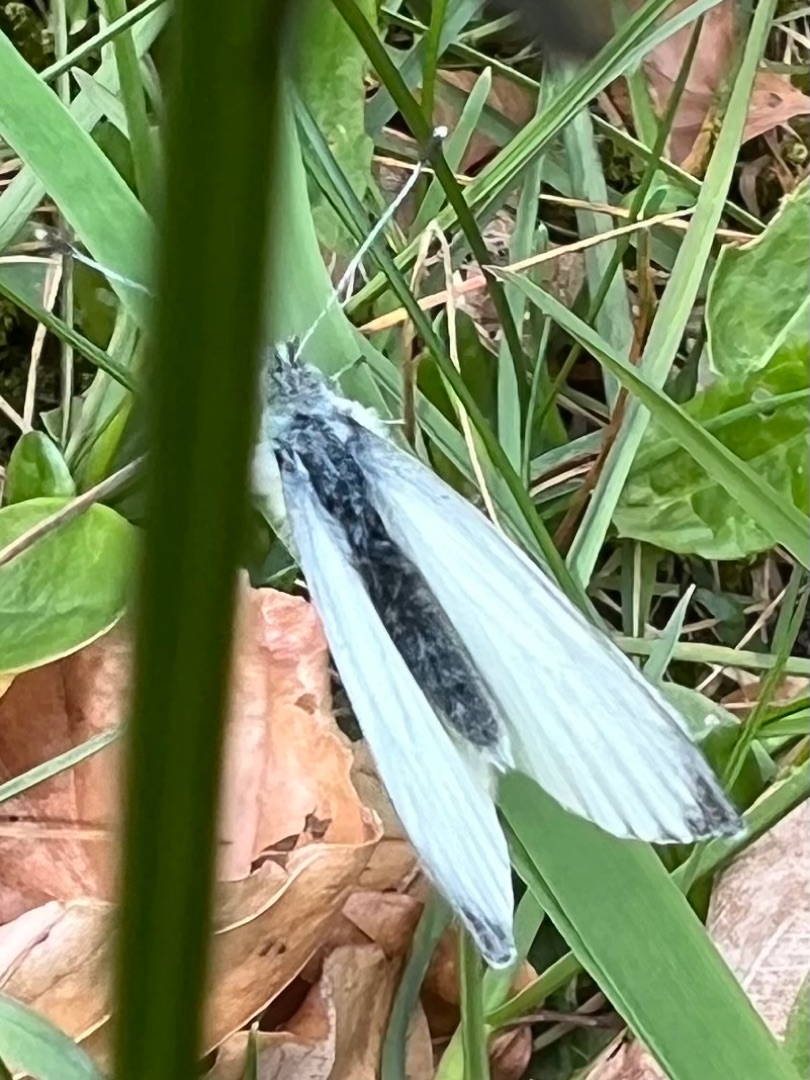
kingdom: Animalia
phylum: Arthropoda
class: Insecta
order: Lepidoptera
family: Pieridae
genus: Pieris
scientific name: Pieris napi
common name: Grønåret kålsommerfugl
